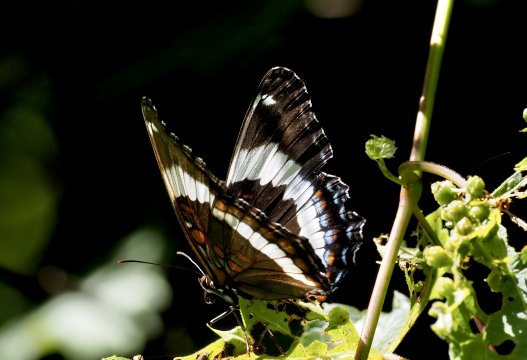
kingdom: Animalia
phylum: Arthropoda
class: Insecta
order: Lepidoptera
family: Nymphalidae
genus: Limenitis
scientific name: Limenitis arthemis
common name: Red-spotted Admiral
